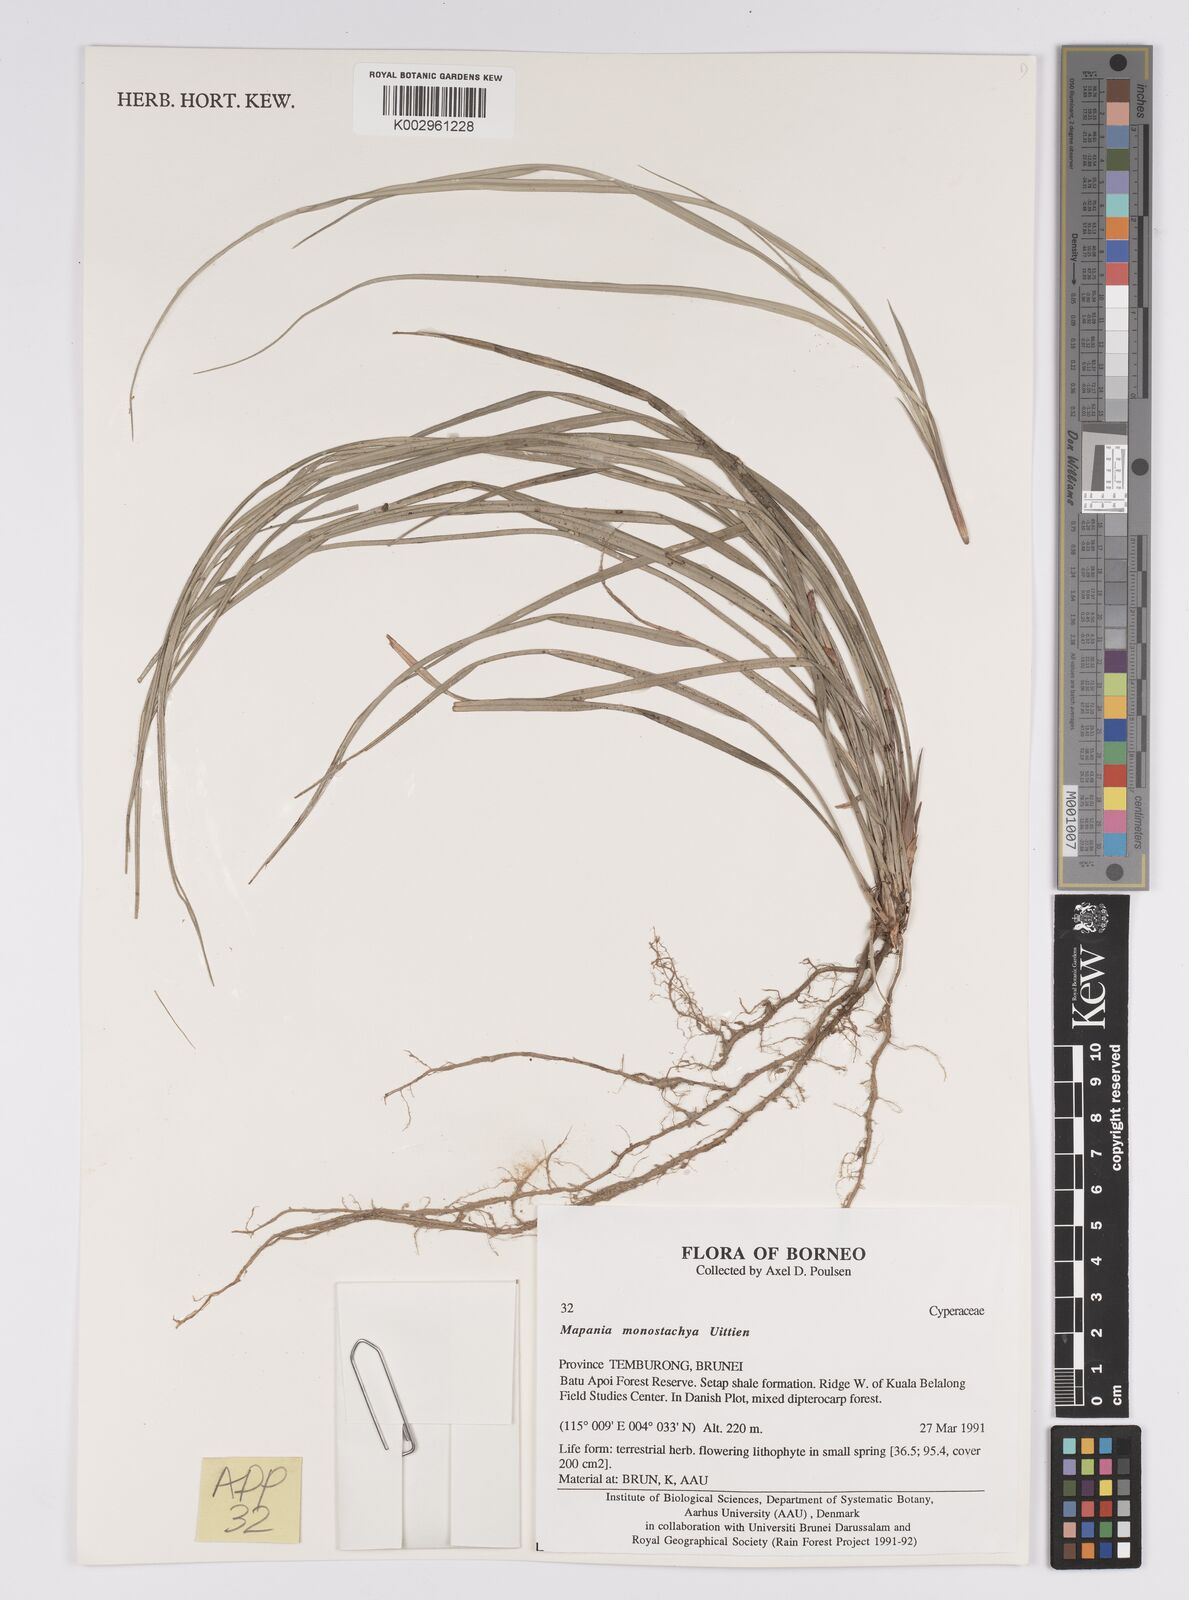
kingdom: Plantae
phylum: Tracheophyta
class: Liliopsida
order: Poales
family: Cyperaceae
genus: Mapania
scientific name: Mapania monostachya
